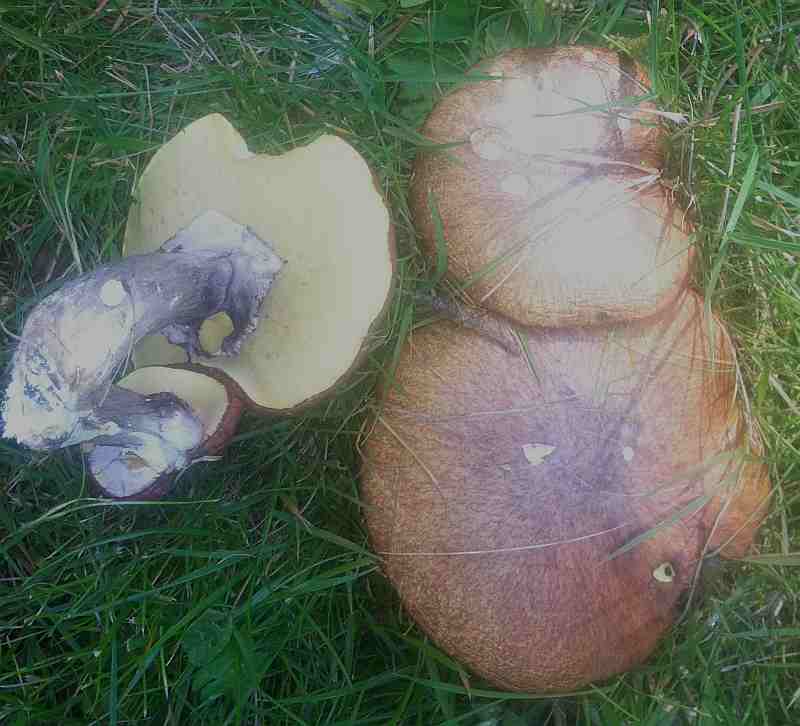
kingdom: Fungi
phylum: Basidiomycota
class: Agaricomycetes
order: Boletales
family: Suillaceae
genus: Suillus
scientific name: Suillus luteus
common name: brungul slimrørhat
